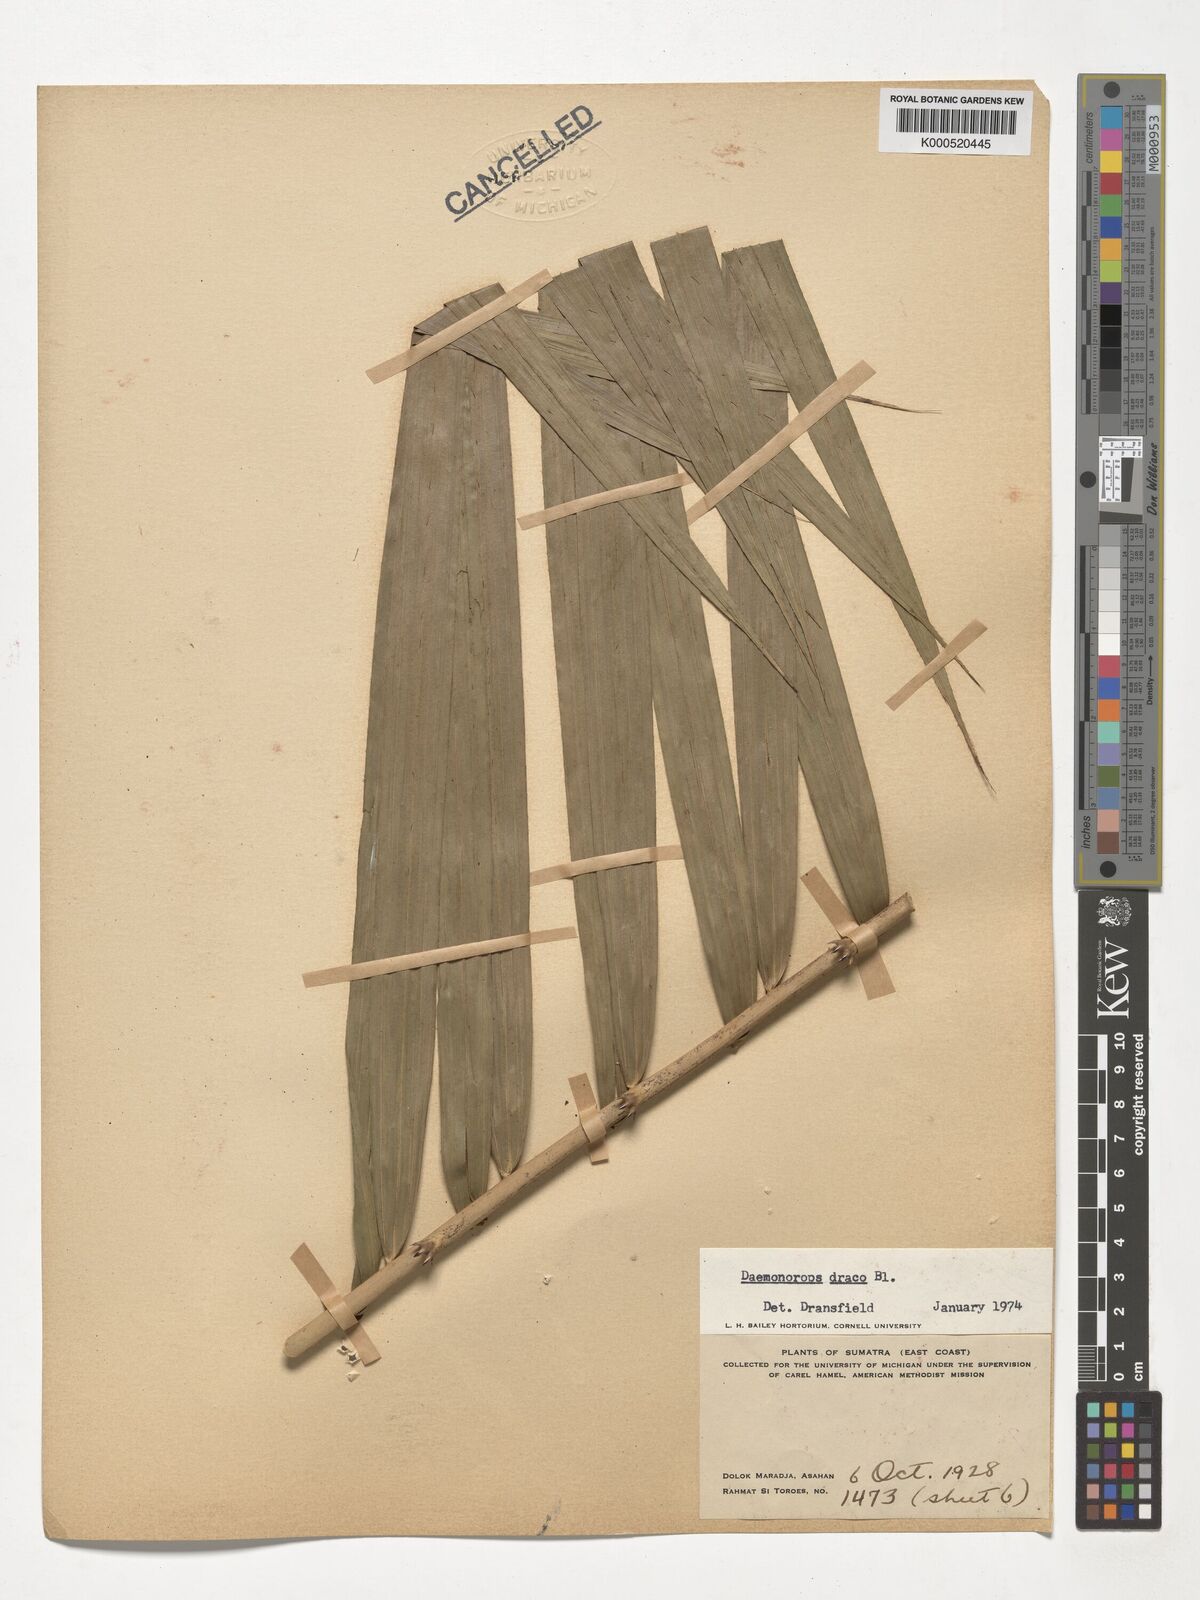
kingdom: Plantae
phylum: Tracheophyta
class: Liliopsida
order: Arecales
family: Arecaceae
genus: Calamus
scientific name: Calamus draco
